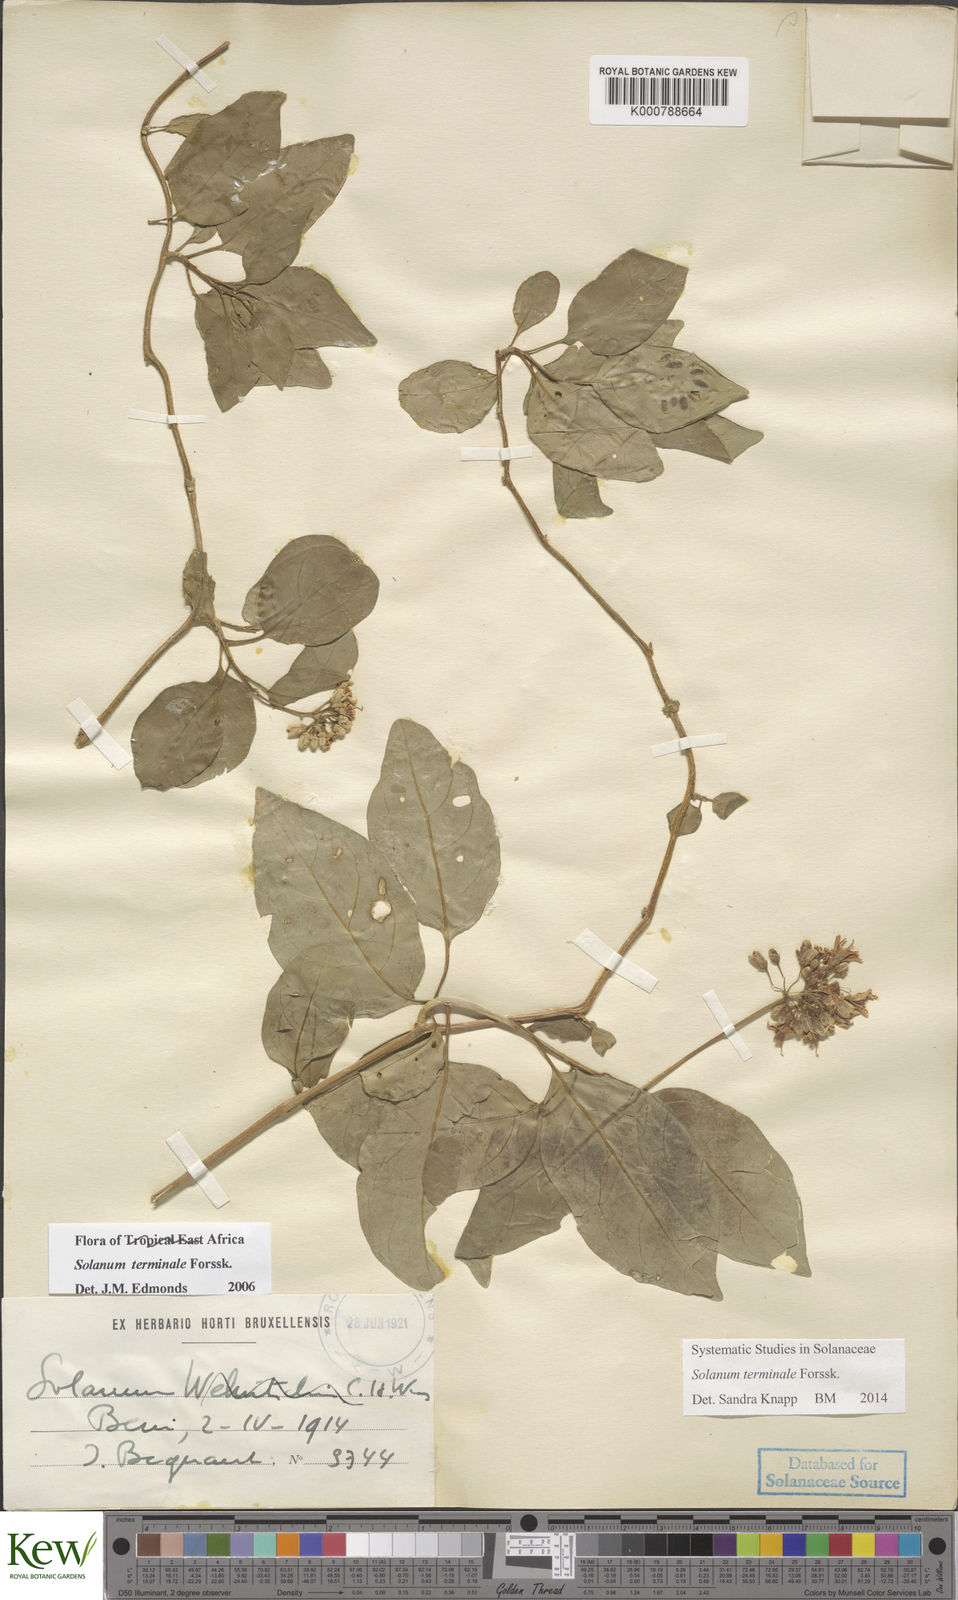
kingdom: Plantae
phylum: Tracheophyta
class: Magnoliopsida
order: Solanales
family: Solanaceae
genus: Solanum
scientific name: Solanum terminale
